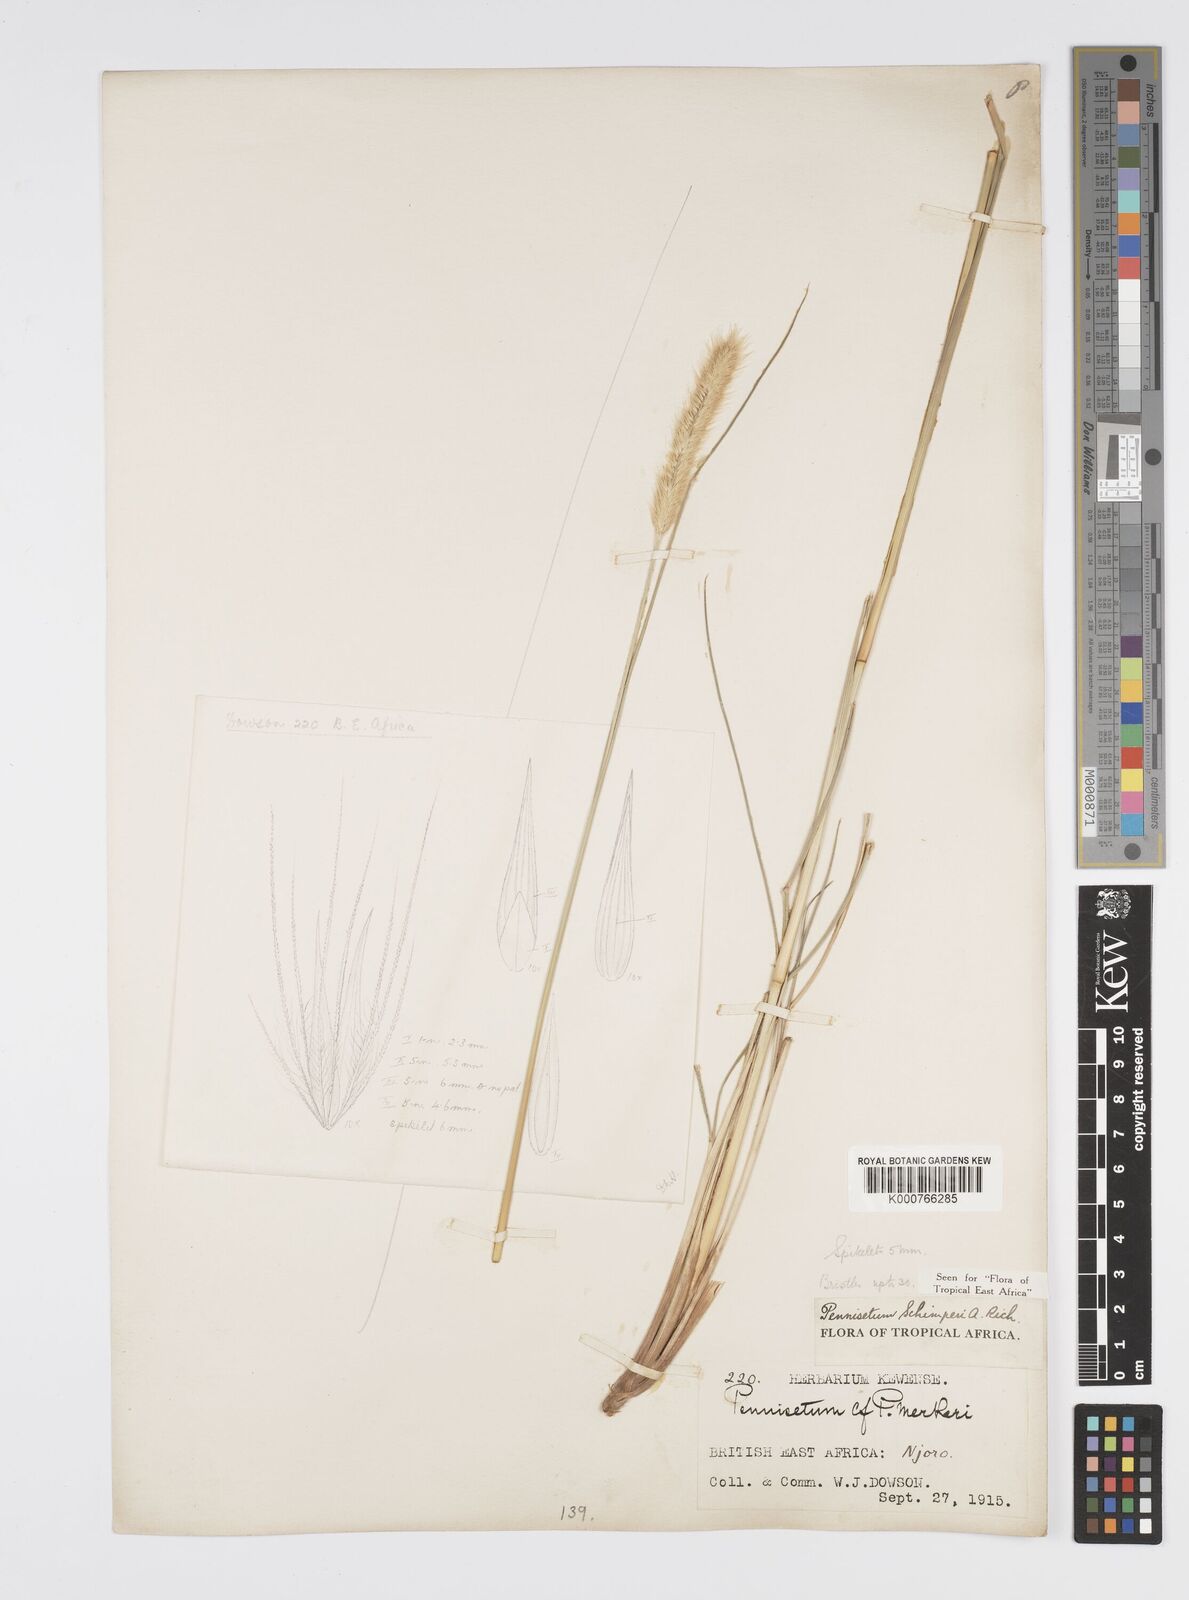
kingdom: Plantae
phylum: Tracheophyta
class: Liliopsida
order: Poales
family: Poaceae
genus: Cenchrus
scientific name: Cenchrus sphacelatus
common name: Bulgras
